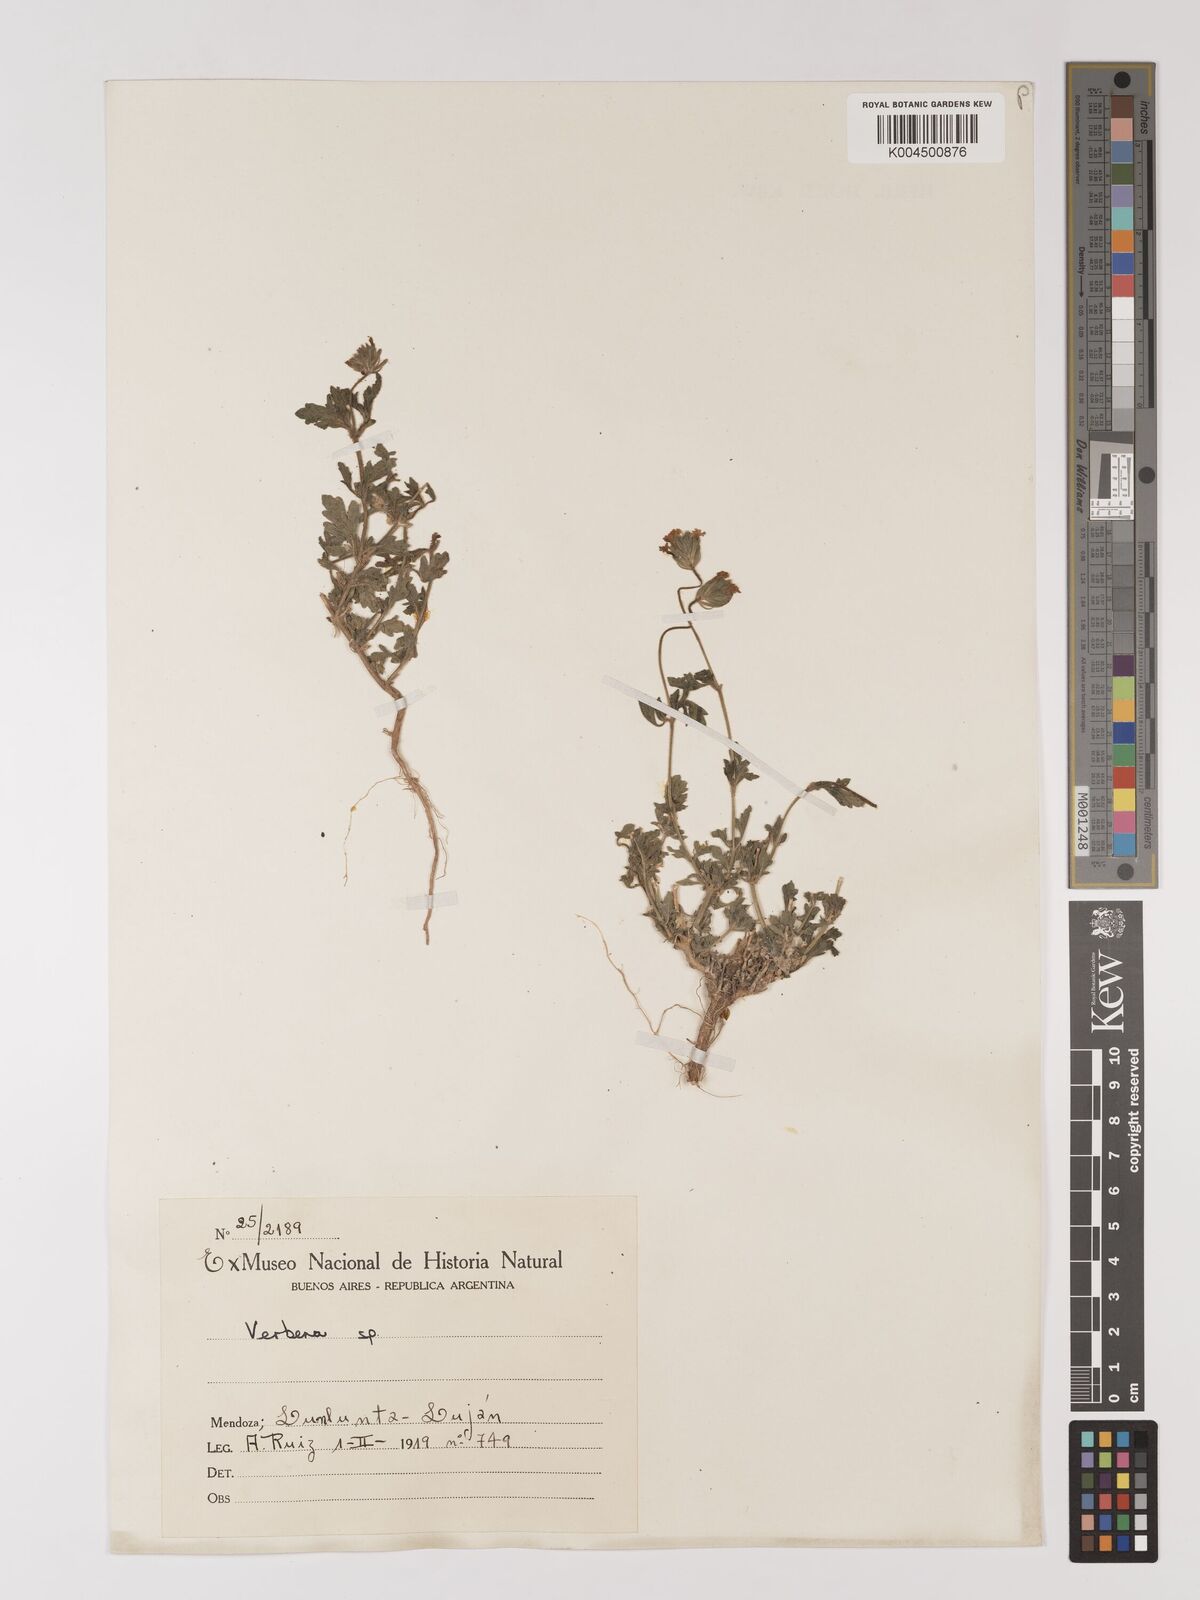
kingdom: Plantae
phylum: Tracheophyta
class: Magnoliopsida
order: Lamiales
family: Verbenaceae
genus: Verbena
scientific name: Verbena
